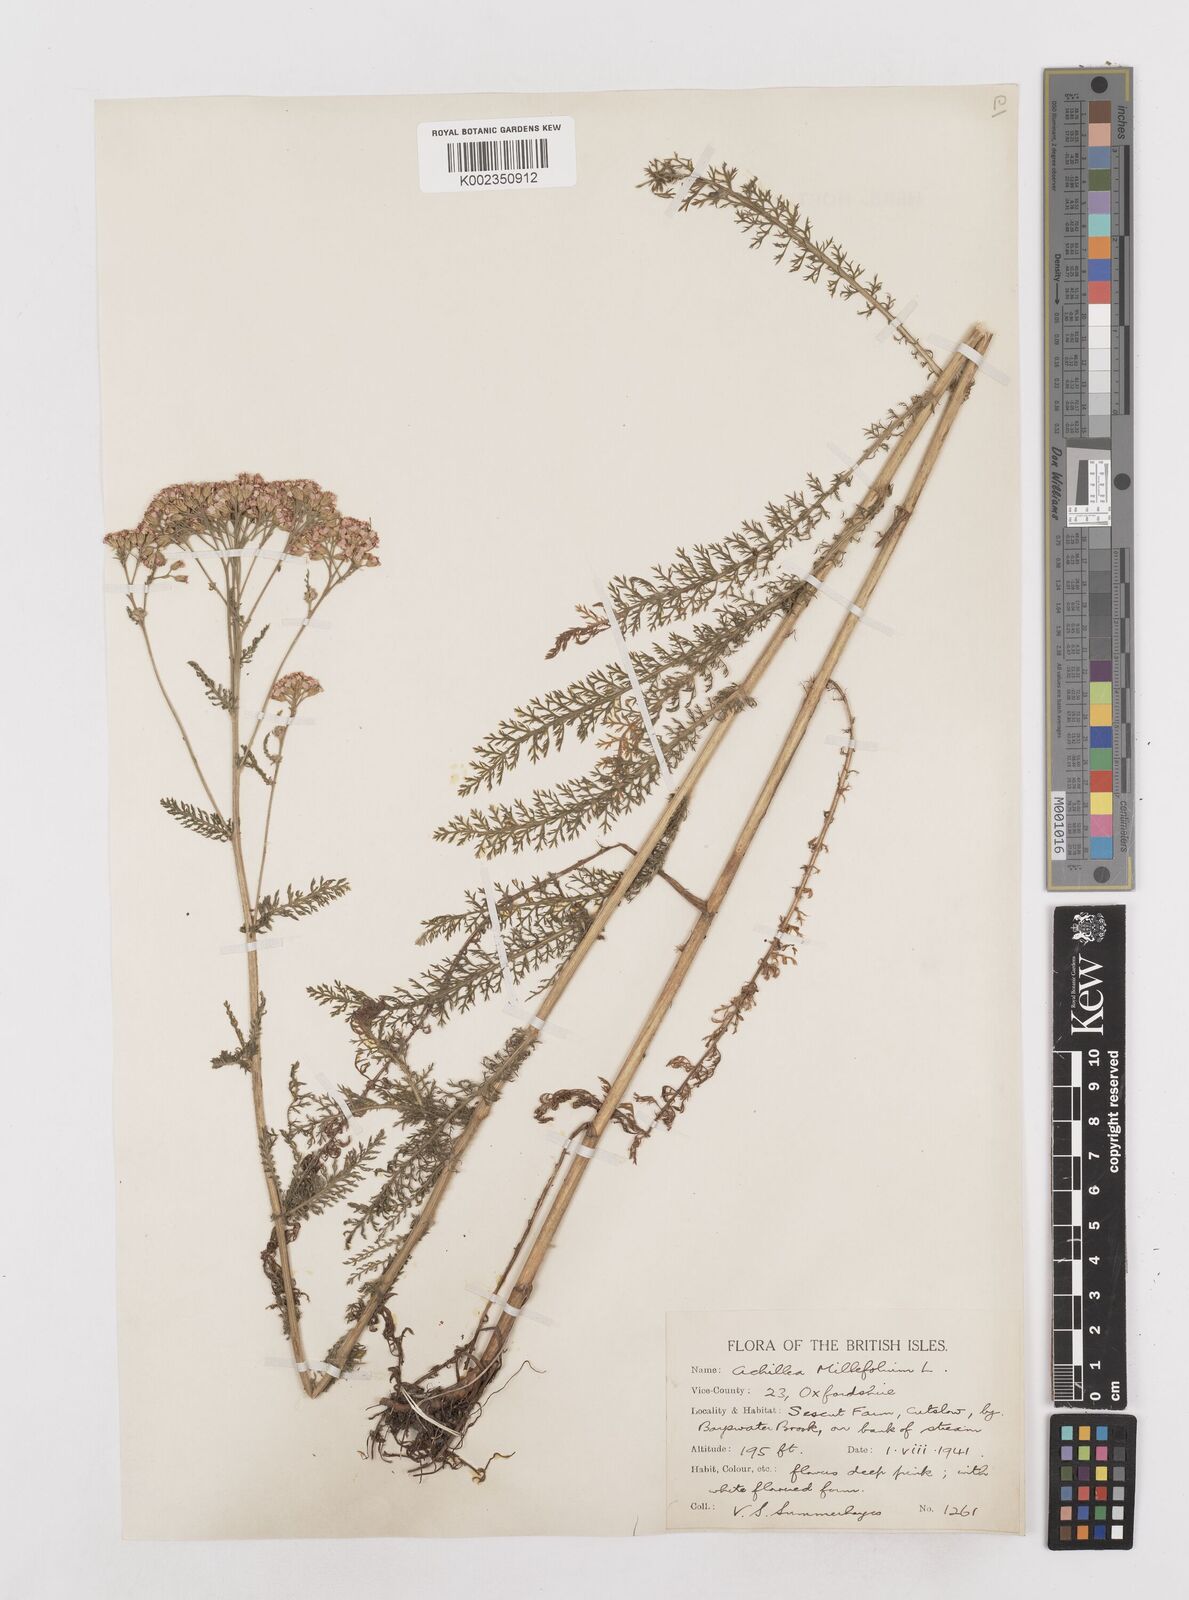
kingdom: Plantae
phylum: Tracheophyta
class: Magnoliopsida
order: Asterales
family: Asteraceae
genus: Achillea
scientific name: Achillea millefolium
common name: Yarrow
